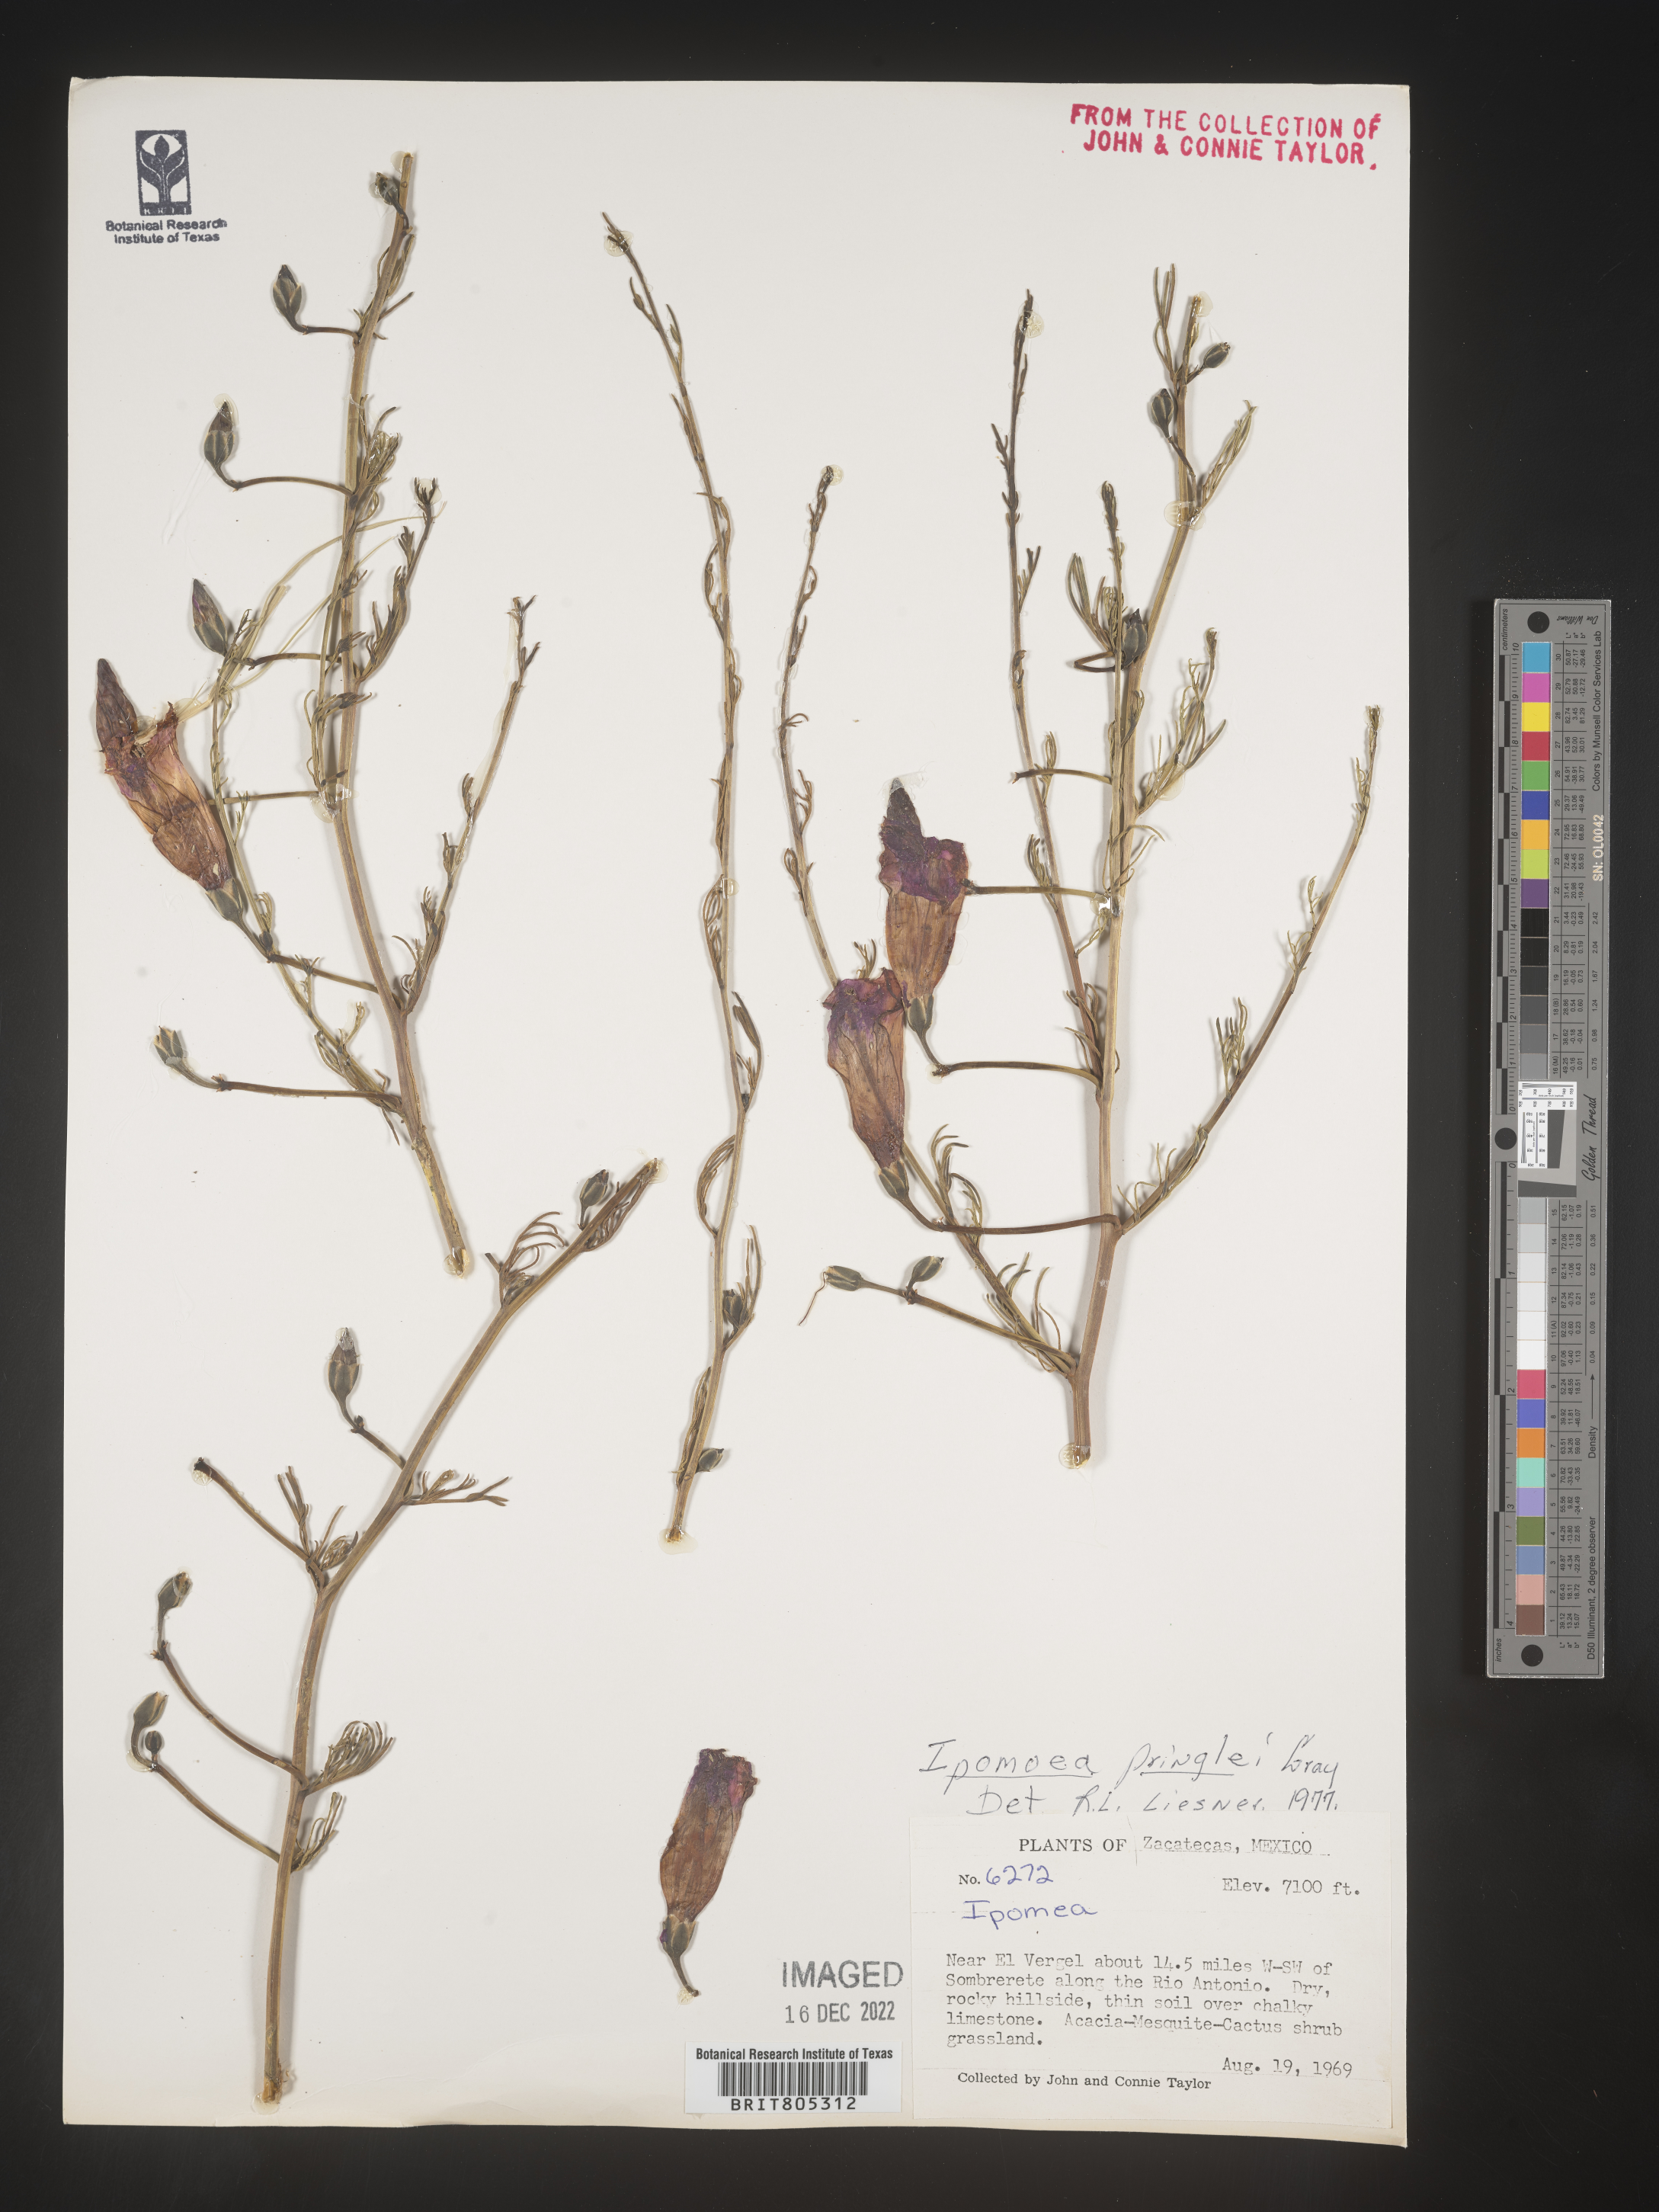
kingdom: Plantae
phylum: Tracheophyta
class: Magnoliopsida
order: Solanales
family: Convolvulaceae
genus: Ipomoea
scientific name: Ipomoea
